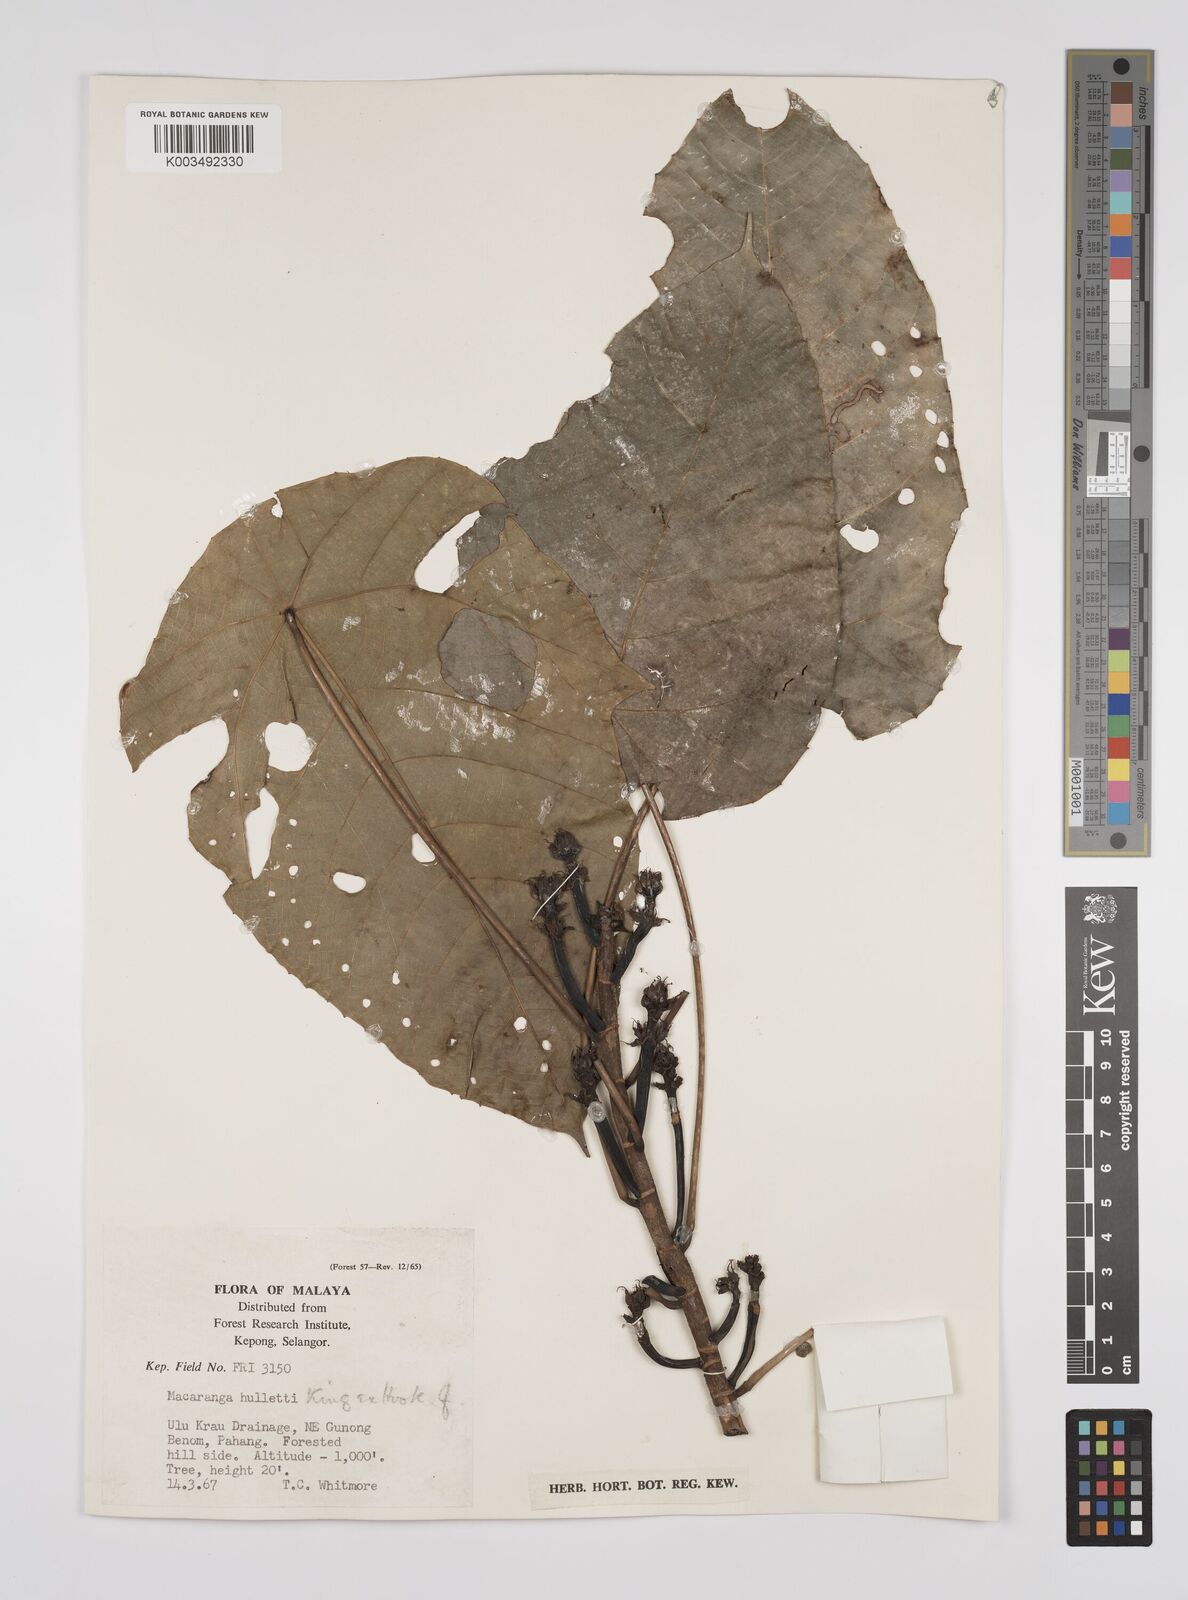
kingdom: Plantae
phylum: Tracheophyta
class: Magnoliopsida
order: Malpighiales
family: Euphorbiaceae
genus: Macaranga
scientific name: Macaranga hullettii
